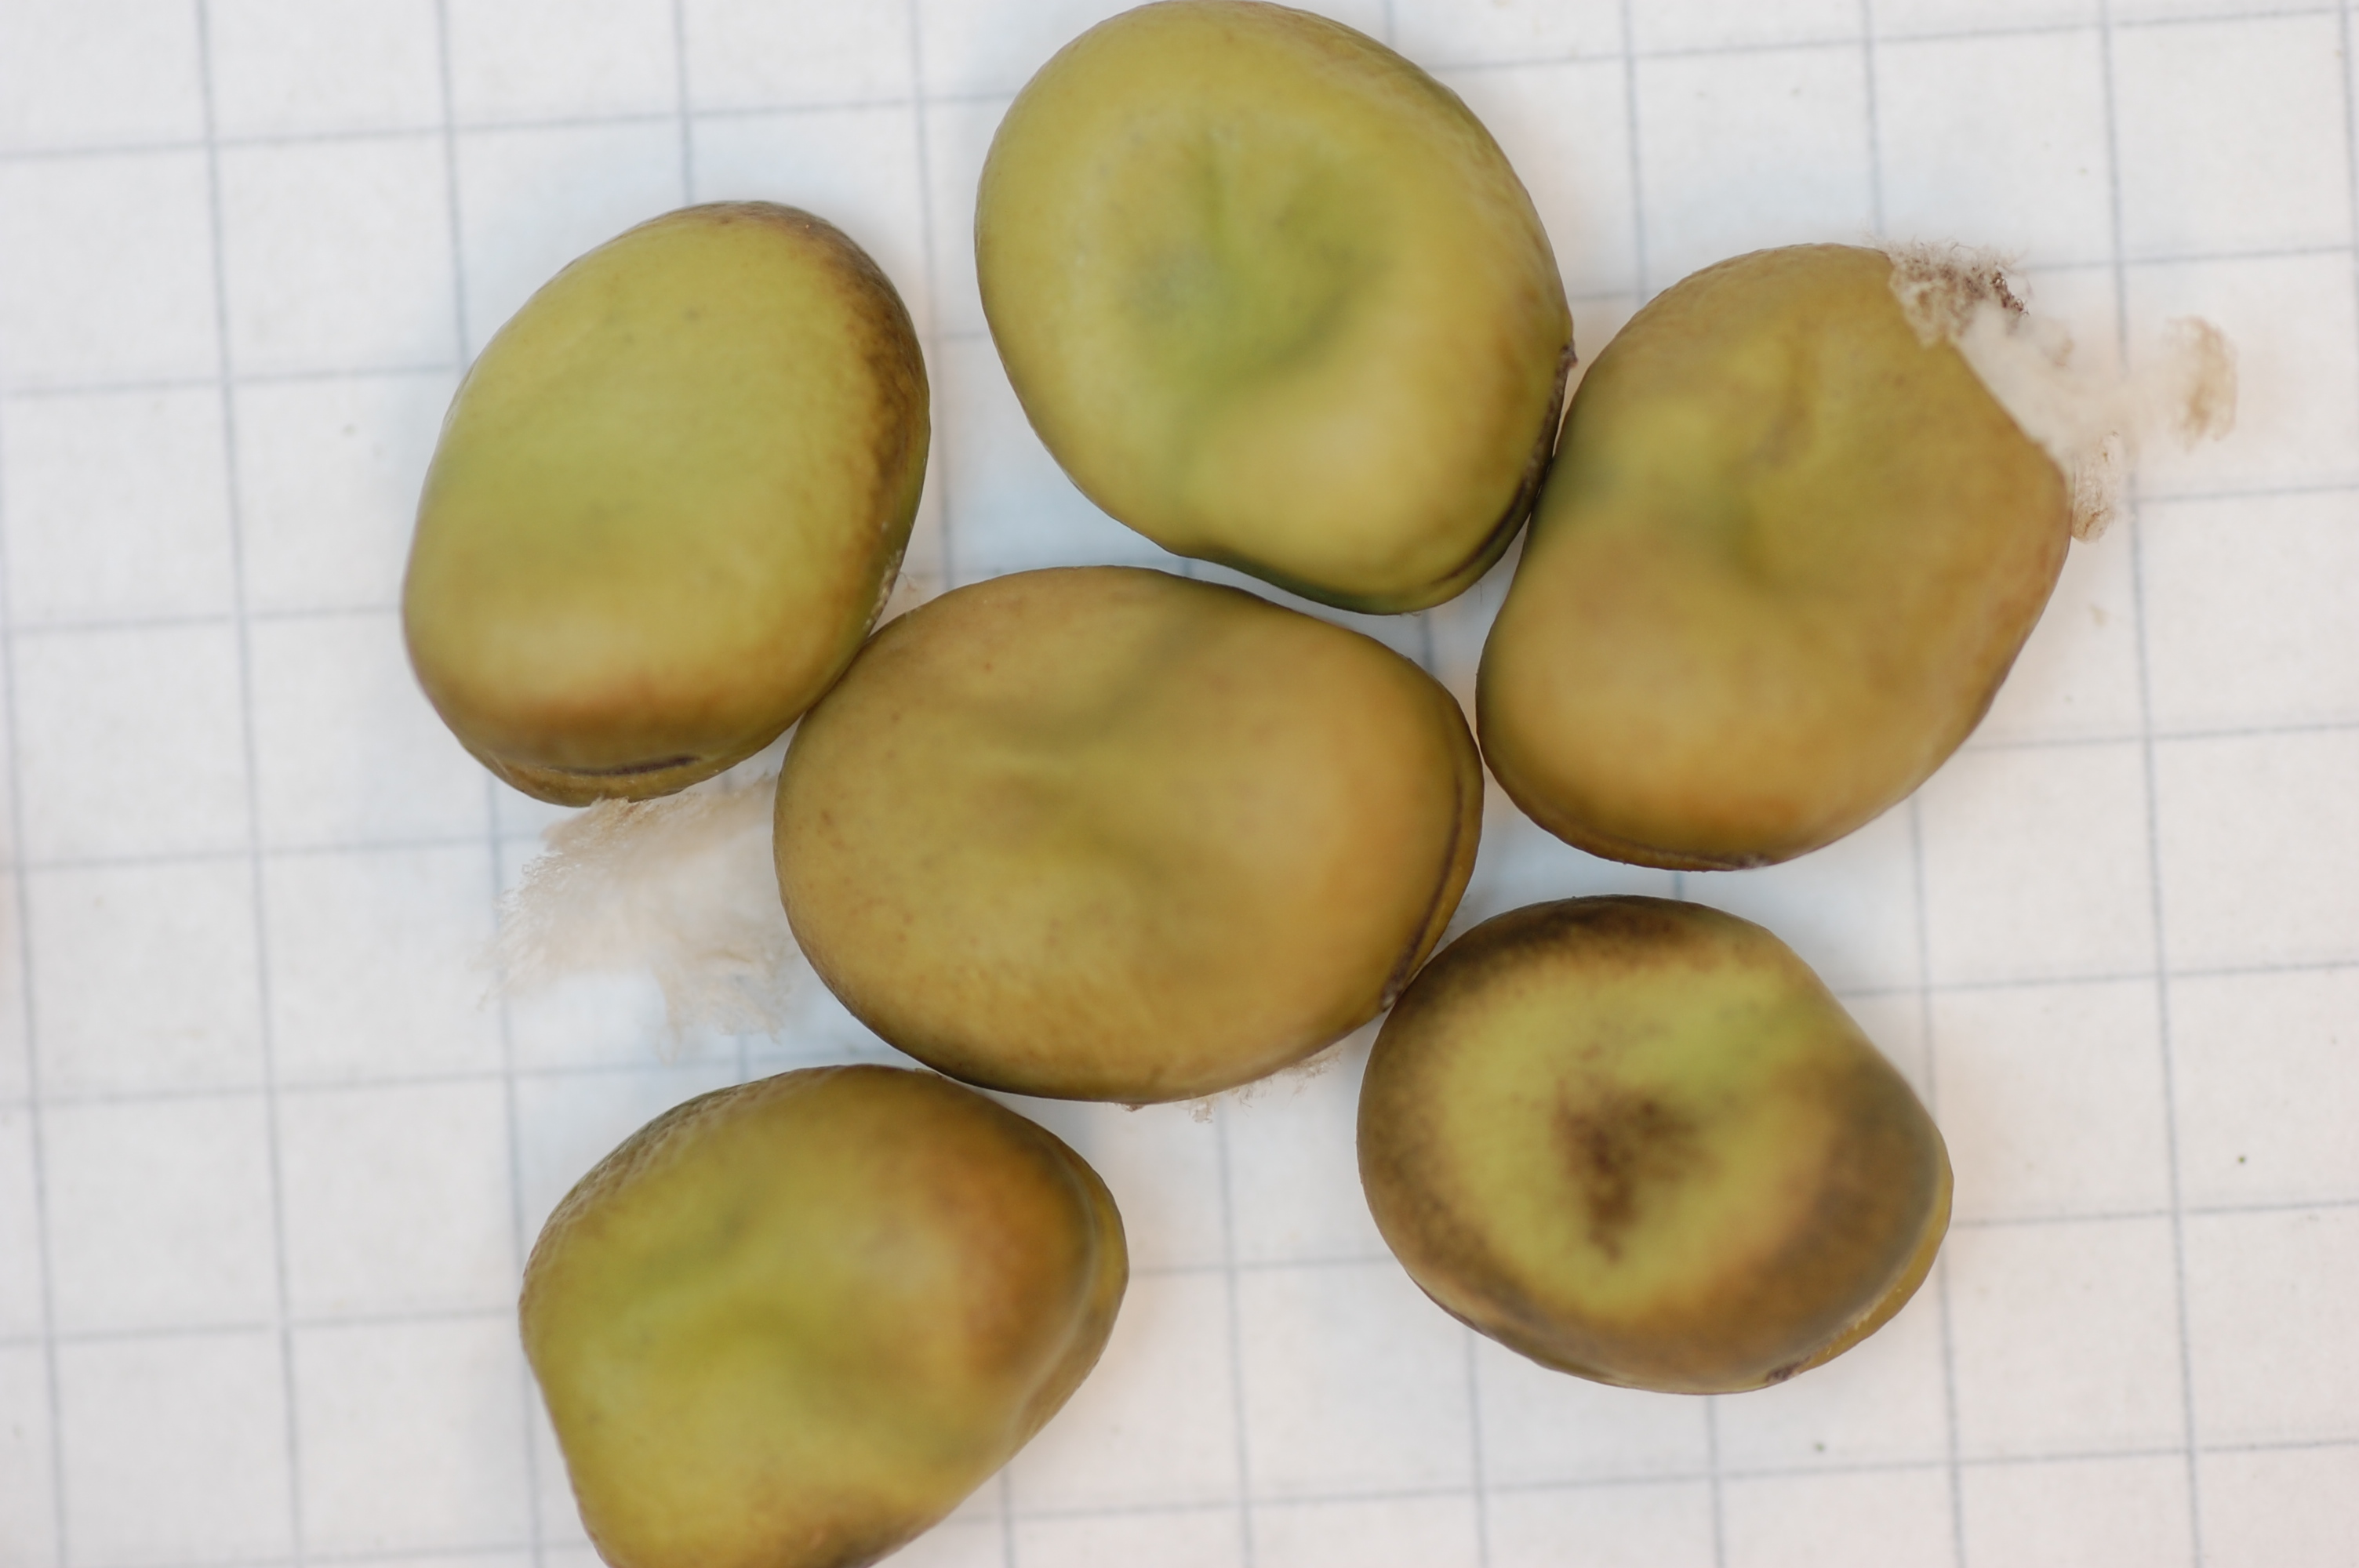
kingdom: Plantae
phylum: Tracheophyta
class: Magnoliopsida
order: Fabales
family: Fabaceae
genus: Vicia
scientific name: Vicia faba
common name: Broad bean
